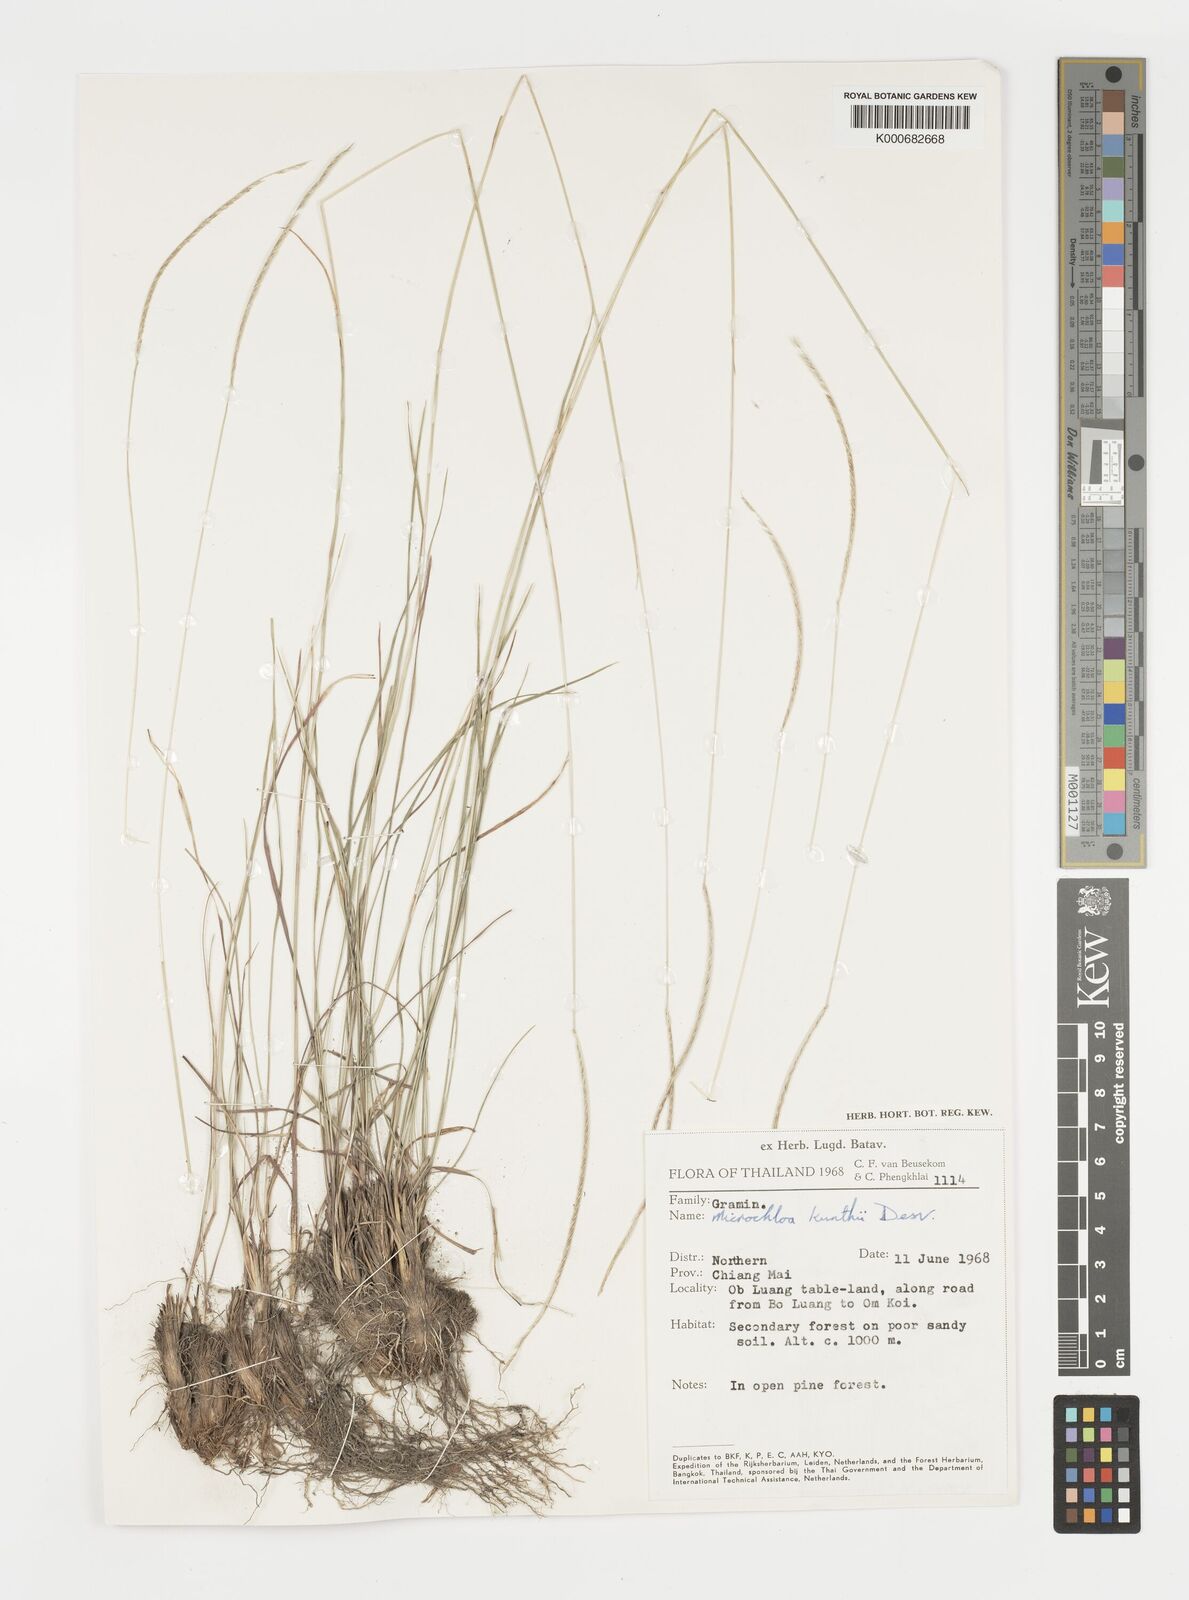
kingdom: Plantae
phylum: Tracheophyta
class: Liliopsida
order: Poales
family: Poaceae
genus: Microchloa
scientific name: Microchloa kunthii
